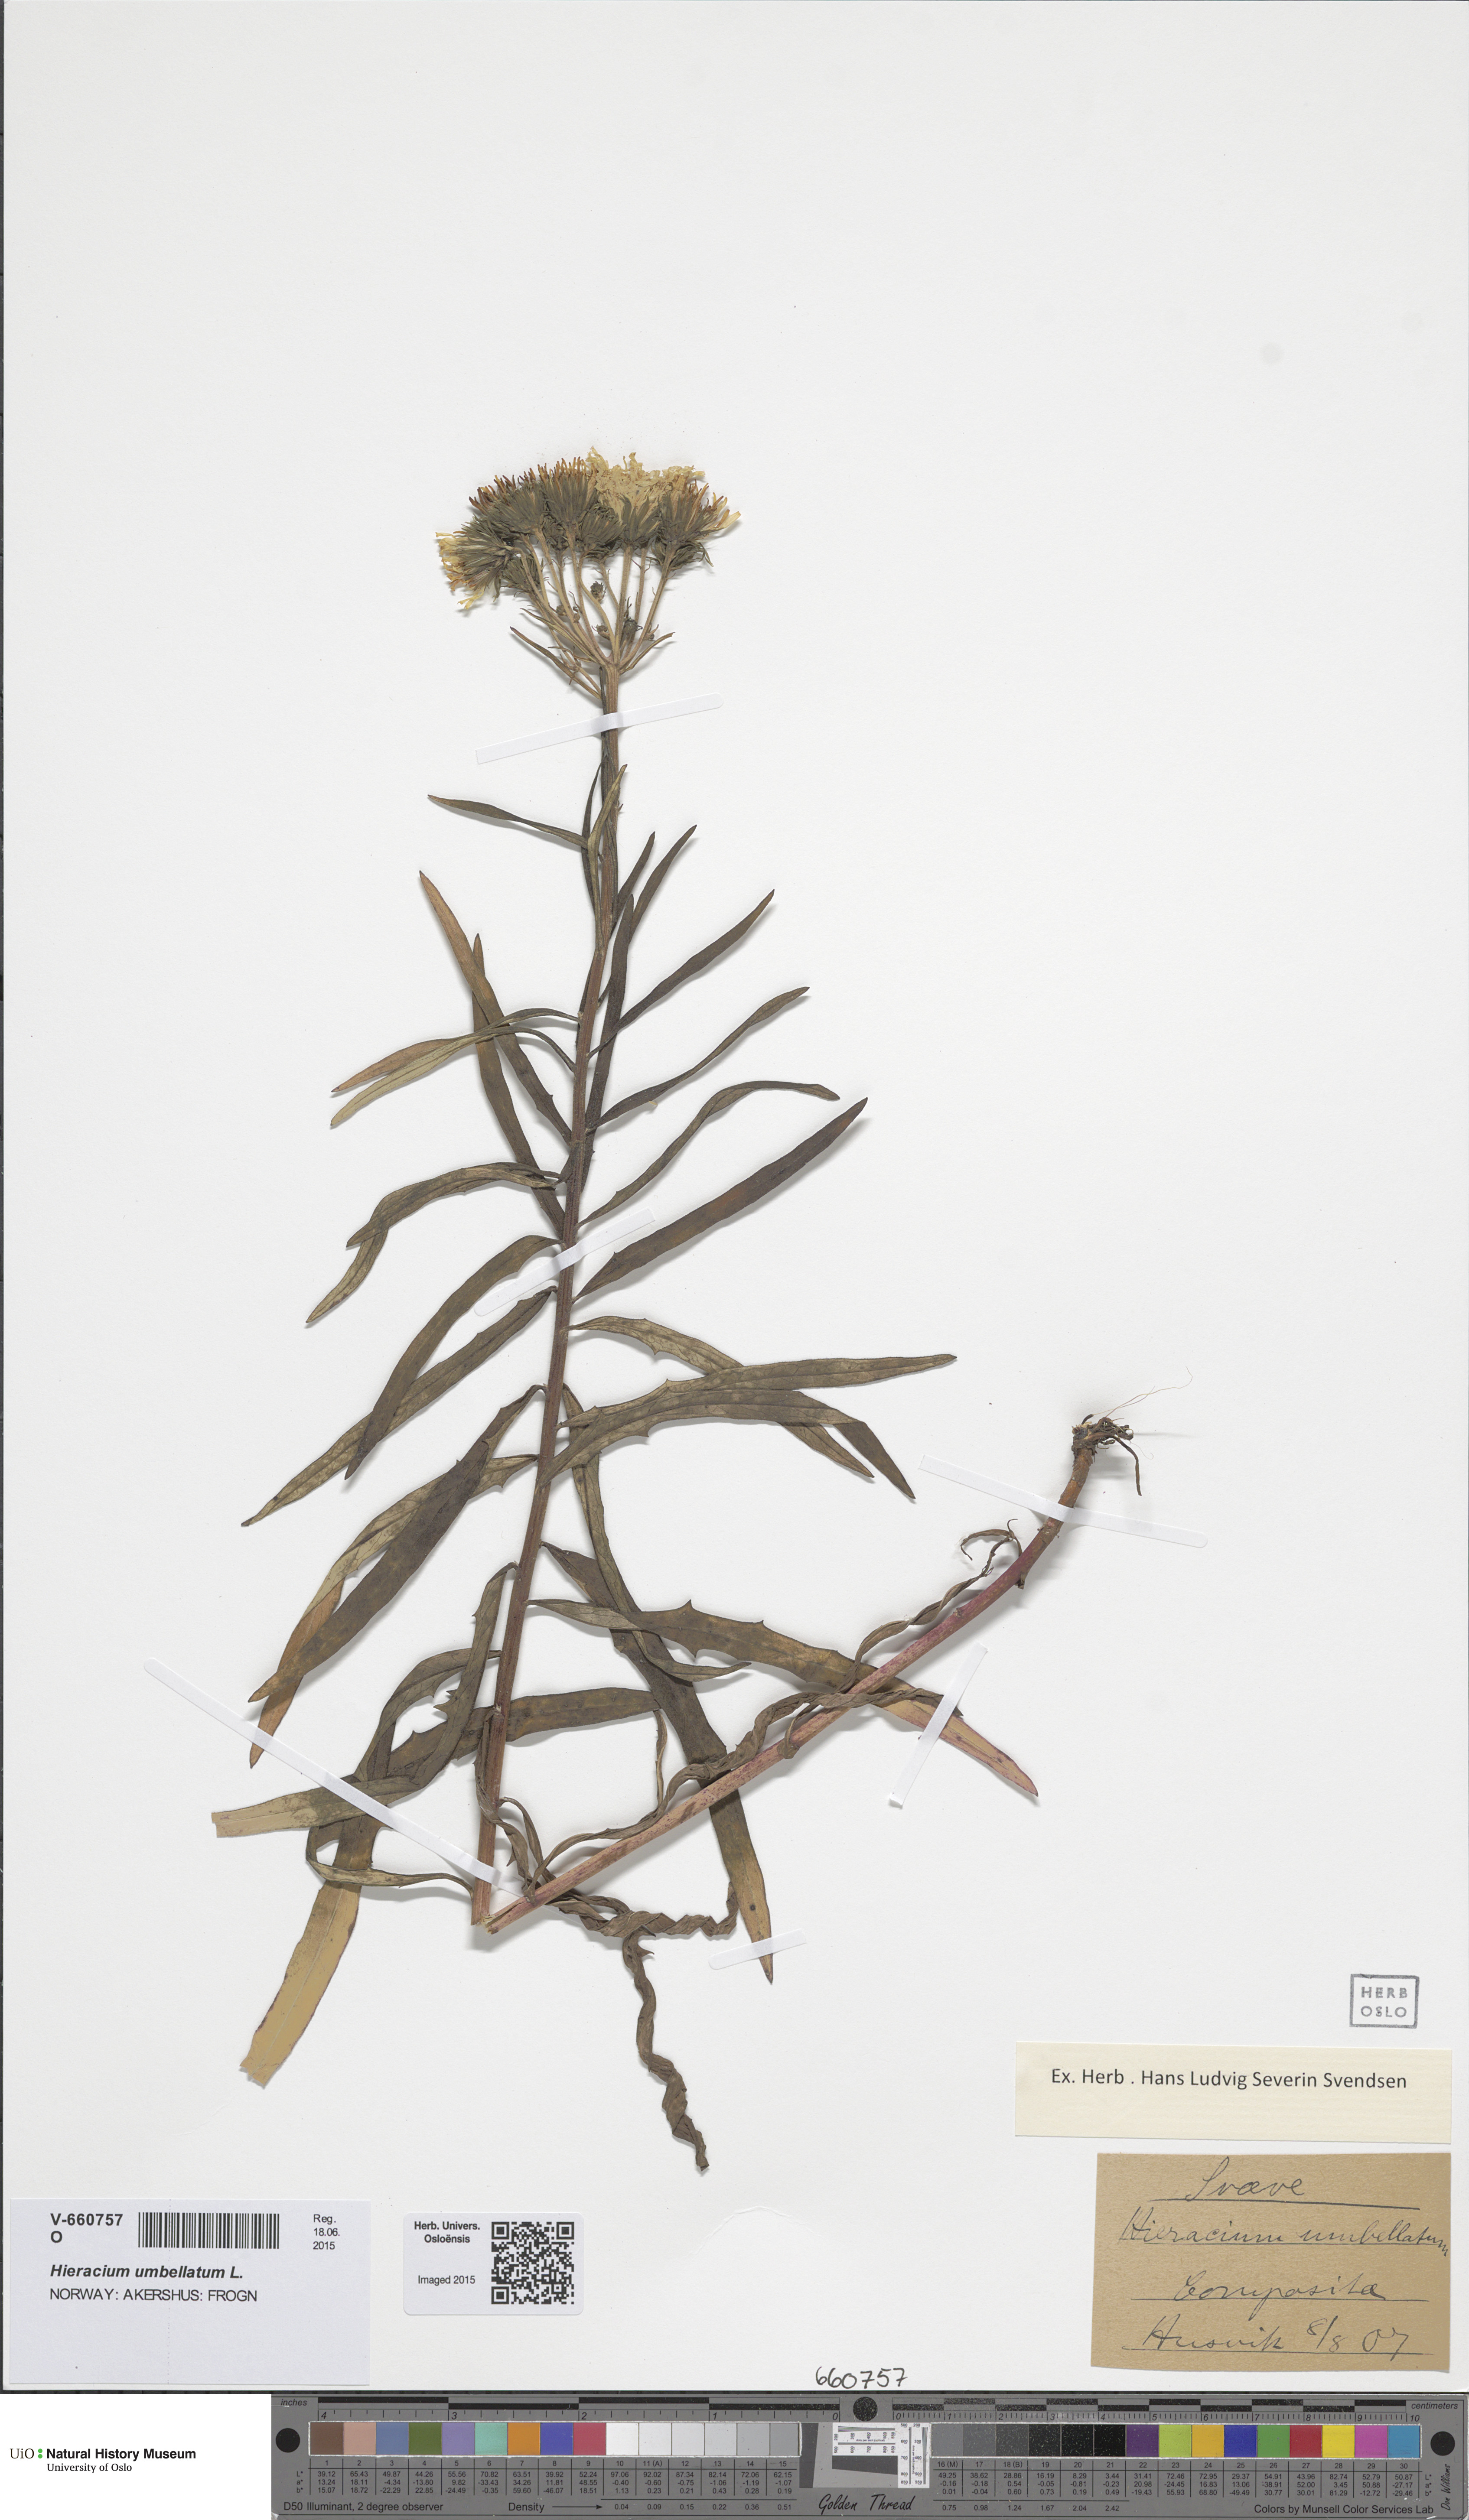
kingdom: Plantae
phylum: Tracheophyta
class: Magnoliopsida
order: Asterales
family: Asteraceae
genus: Hieracium
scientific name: Hieracium umbellatum
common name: Northern hawkweed
